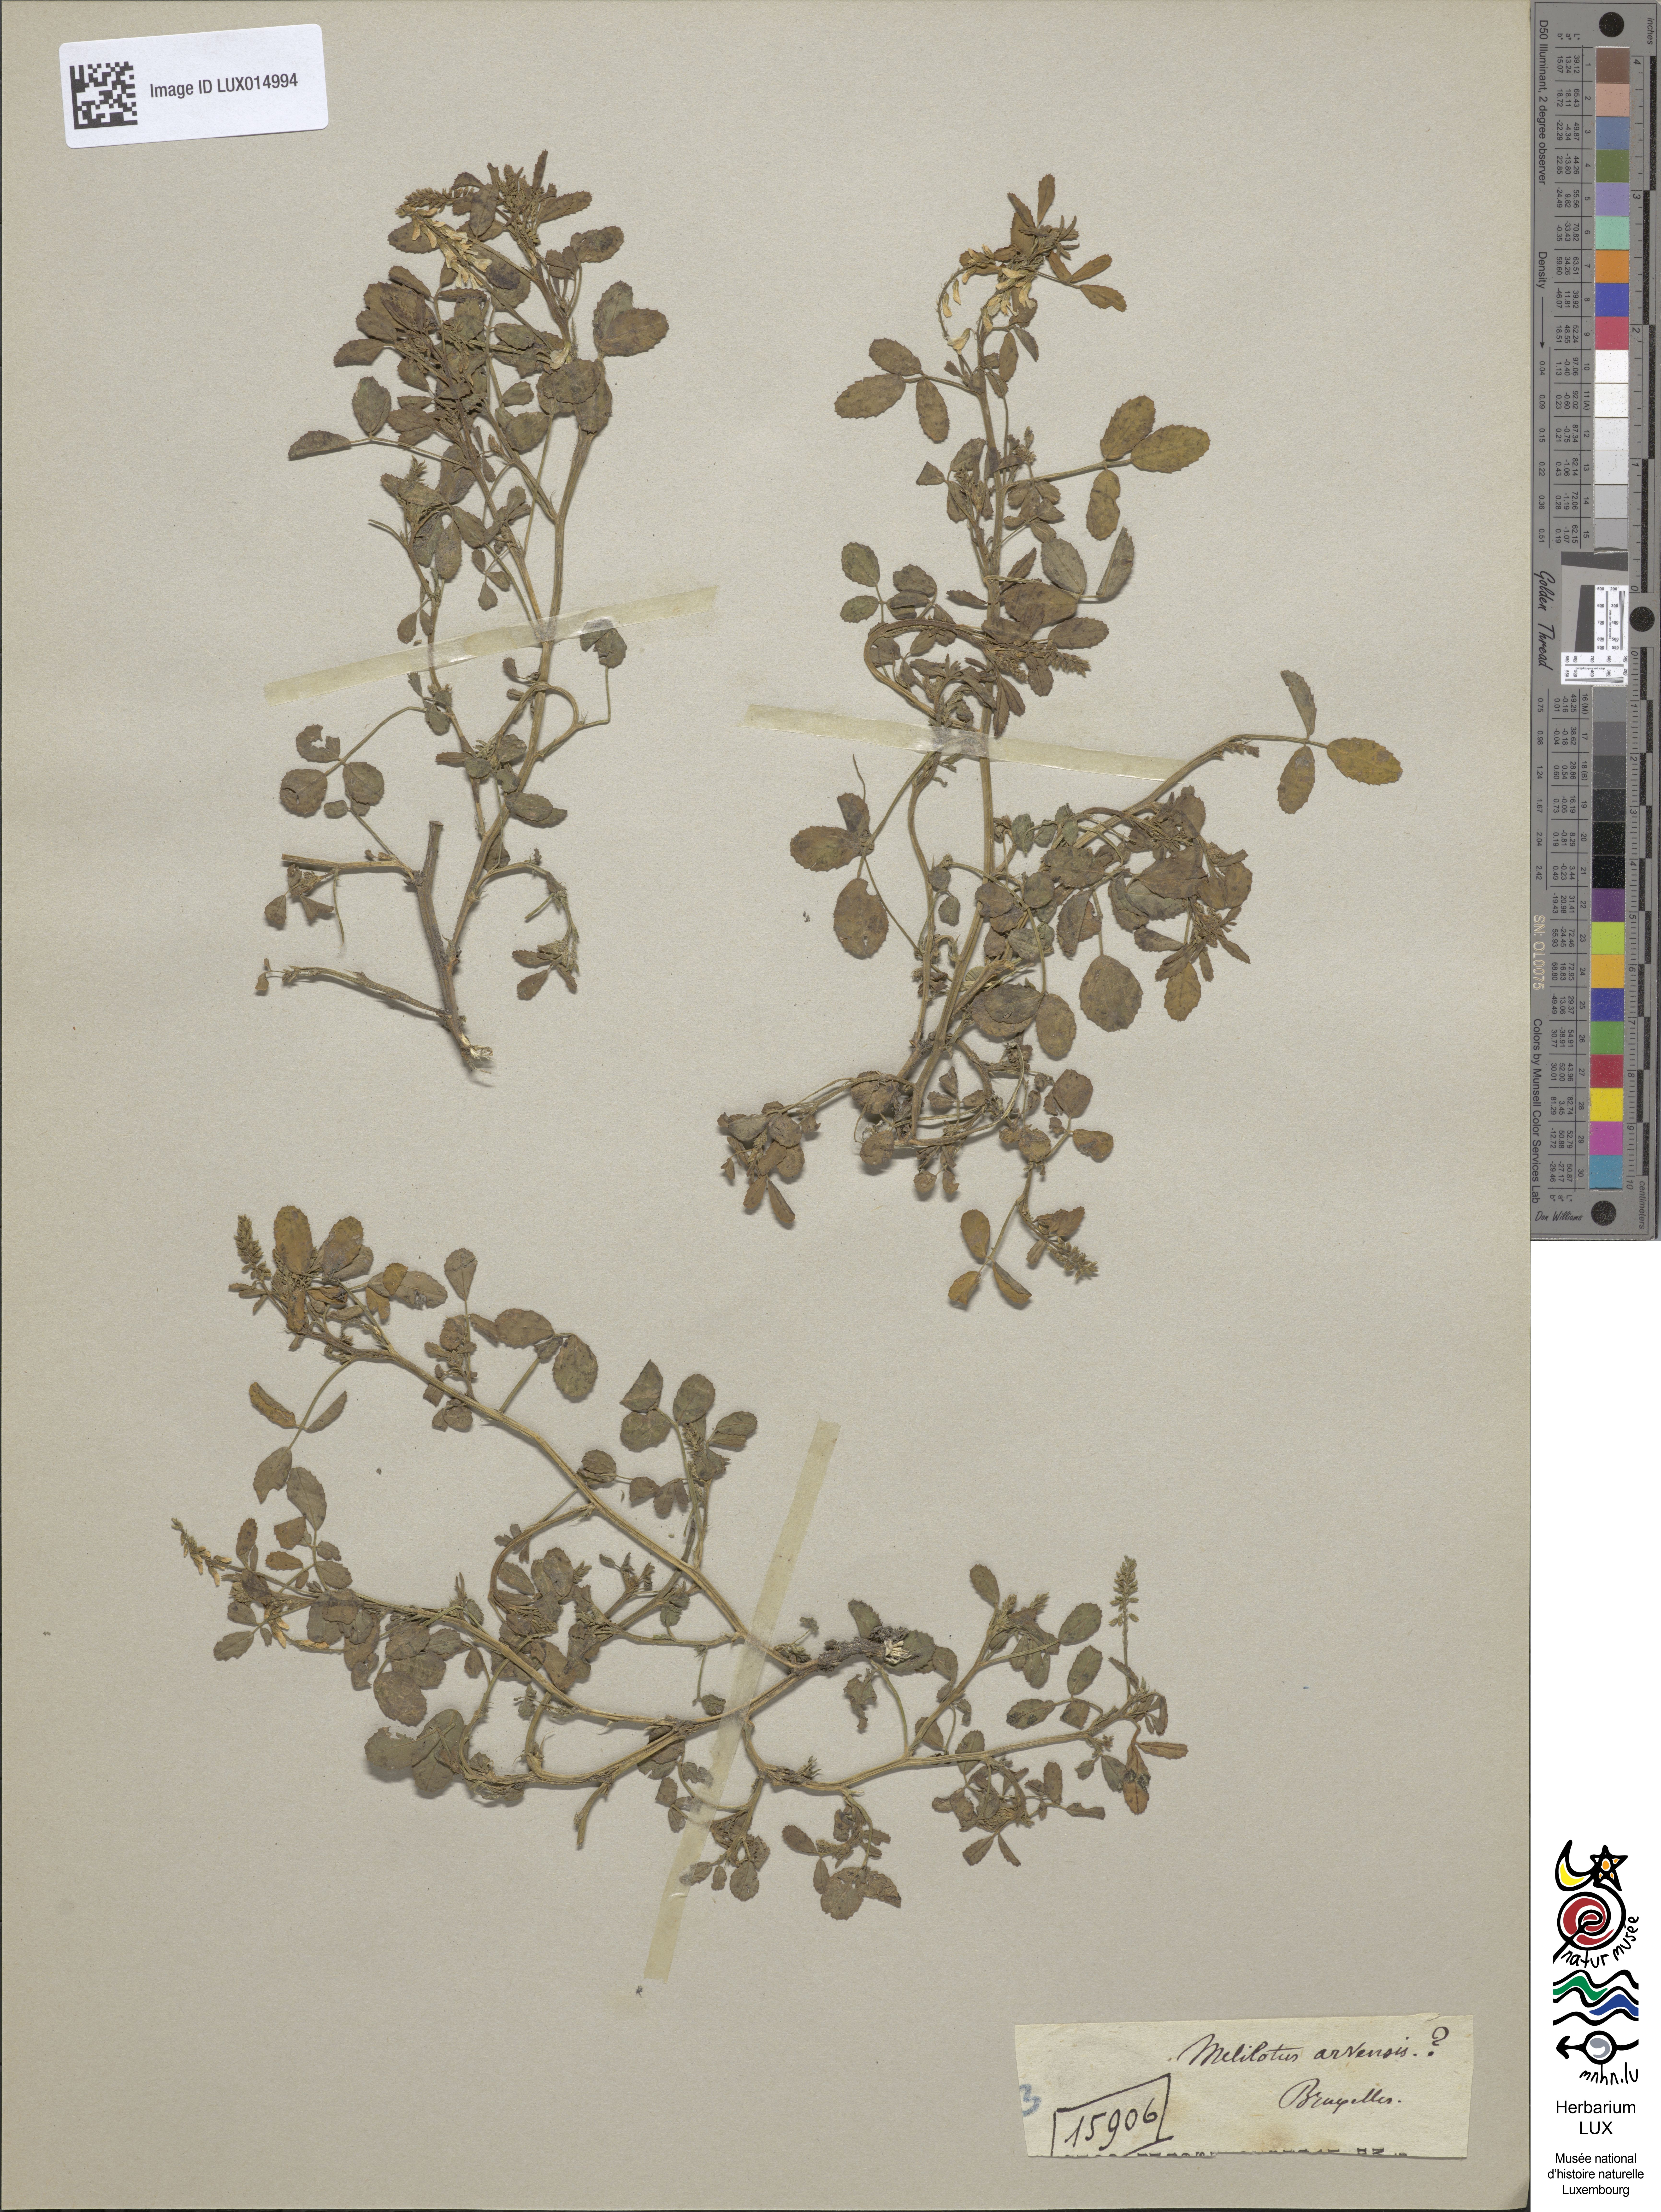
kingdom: Plantae
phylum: Tracheophyta
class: Magnoliopsida
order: Fabales
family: Fabaceae
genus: Melilotus
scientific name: Melilotus officinalis
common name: Sweetclover
